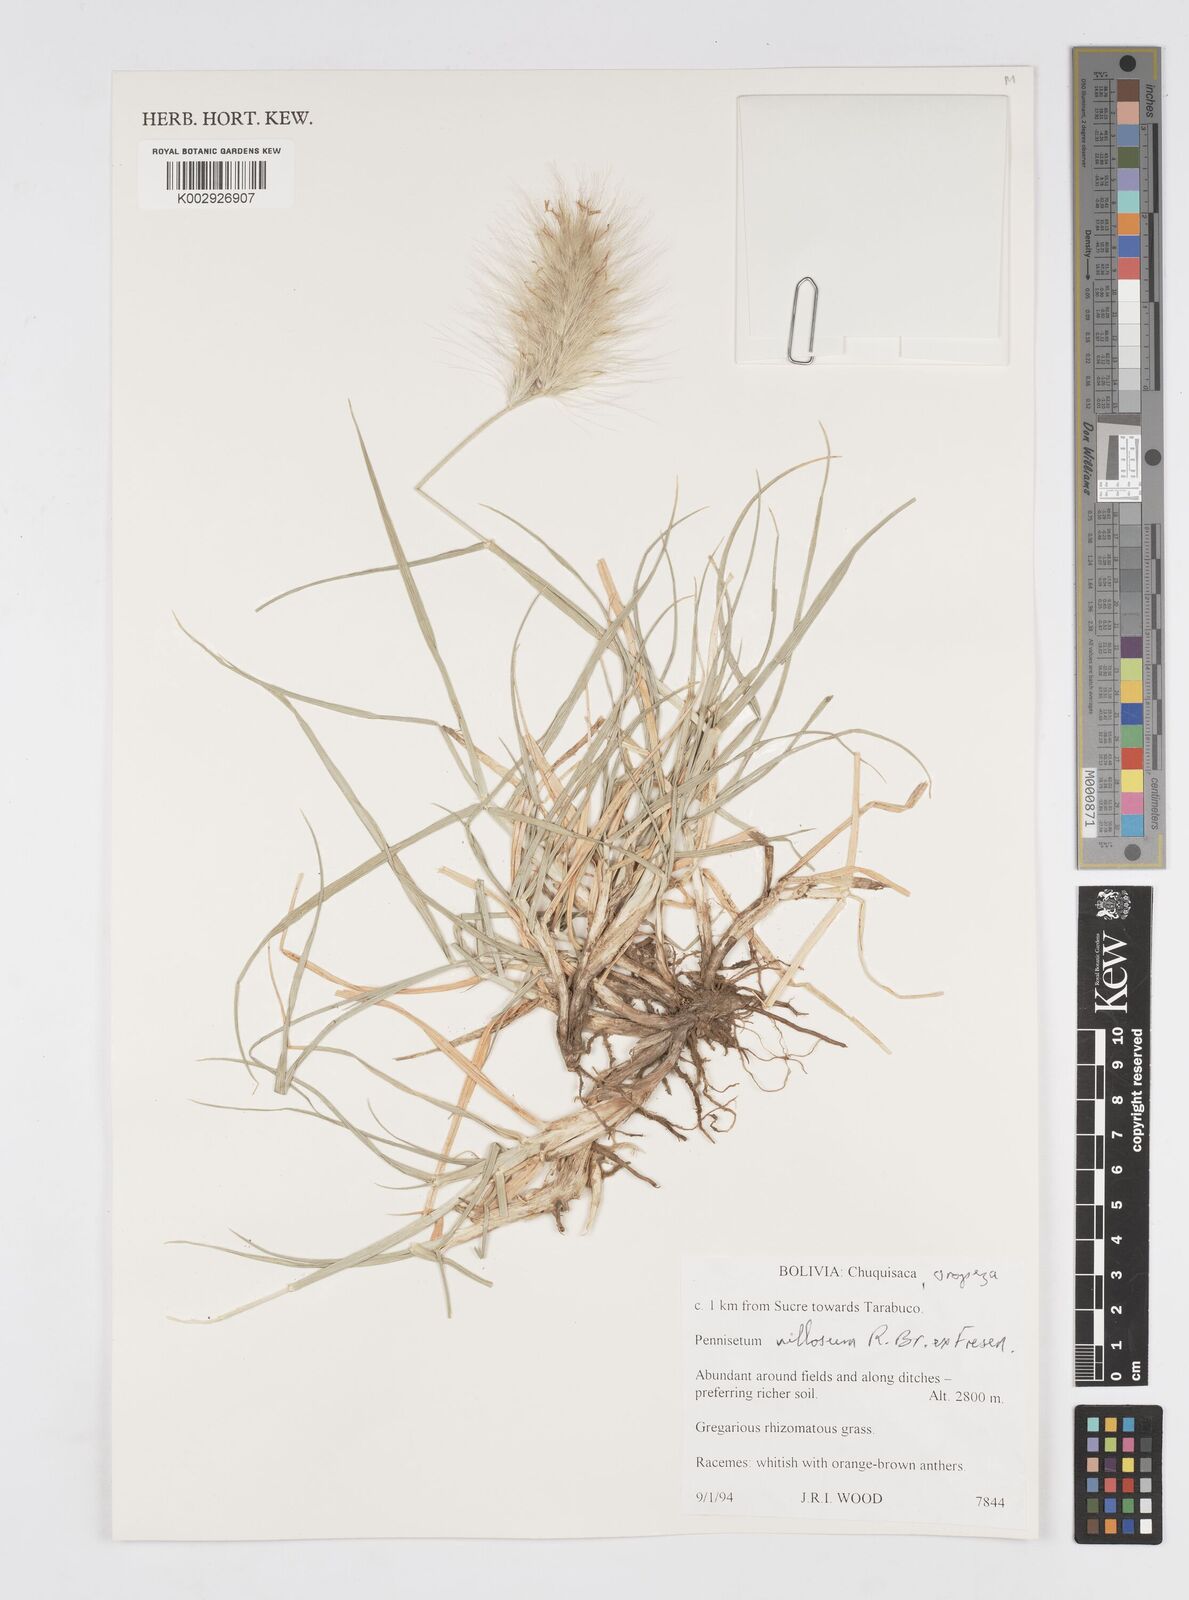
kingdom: Plantae
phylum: Tracheophyta
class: Liliopsida
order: Poales
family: Poaceae
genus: Cenchrus
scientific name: Cenchrus longisetus
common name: Feathertop
